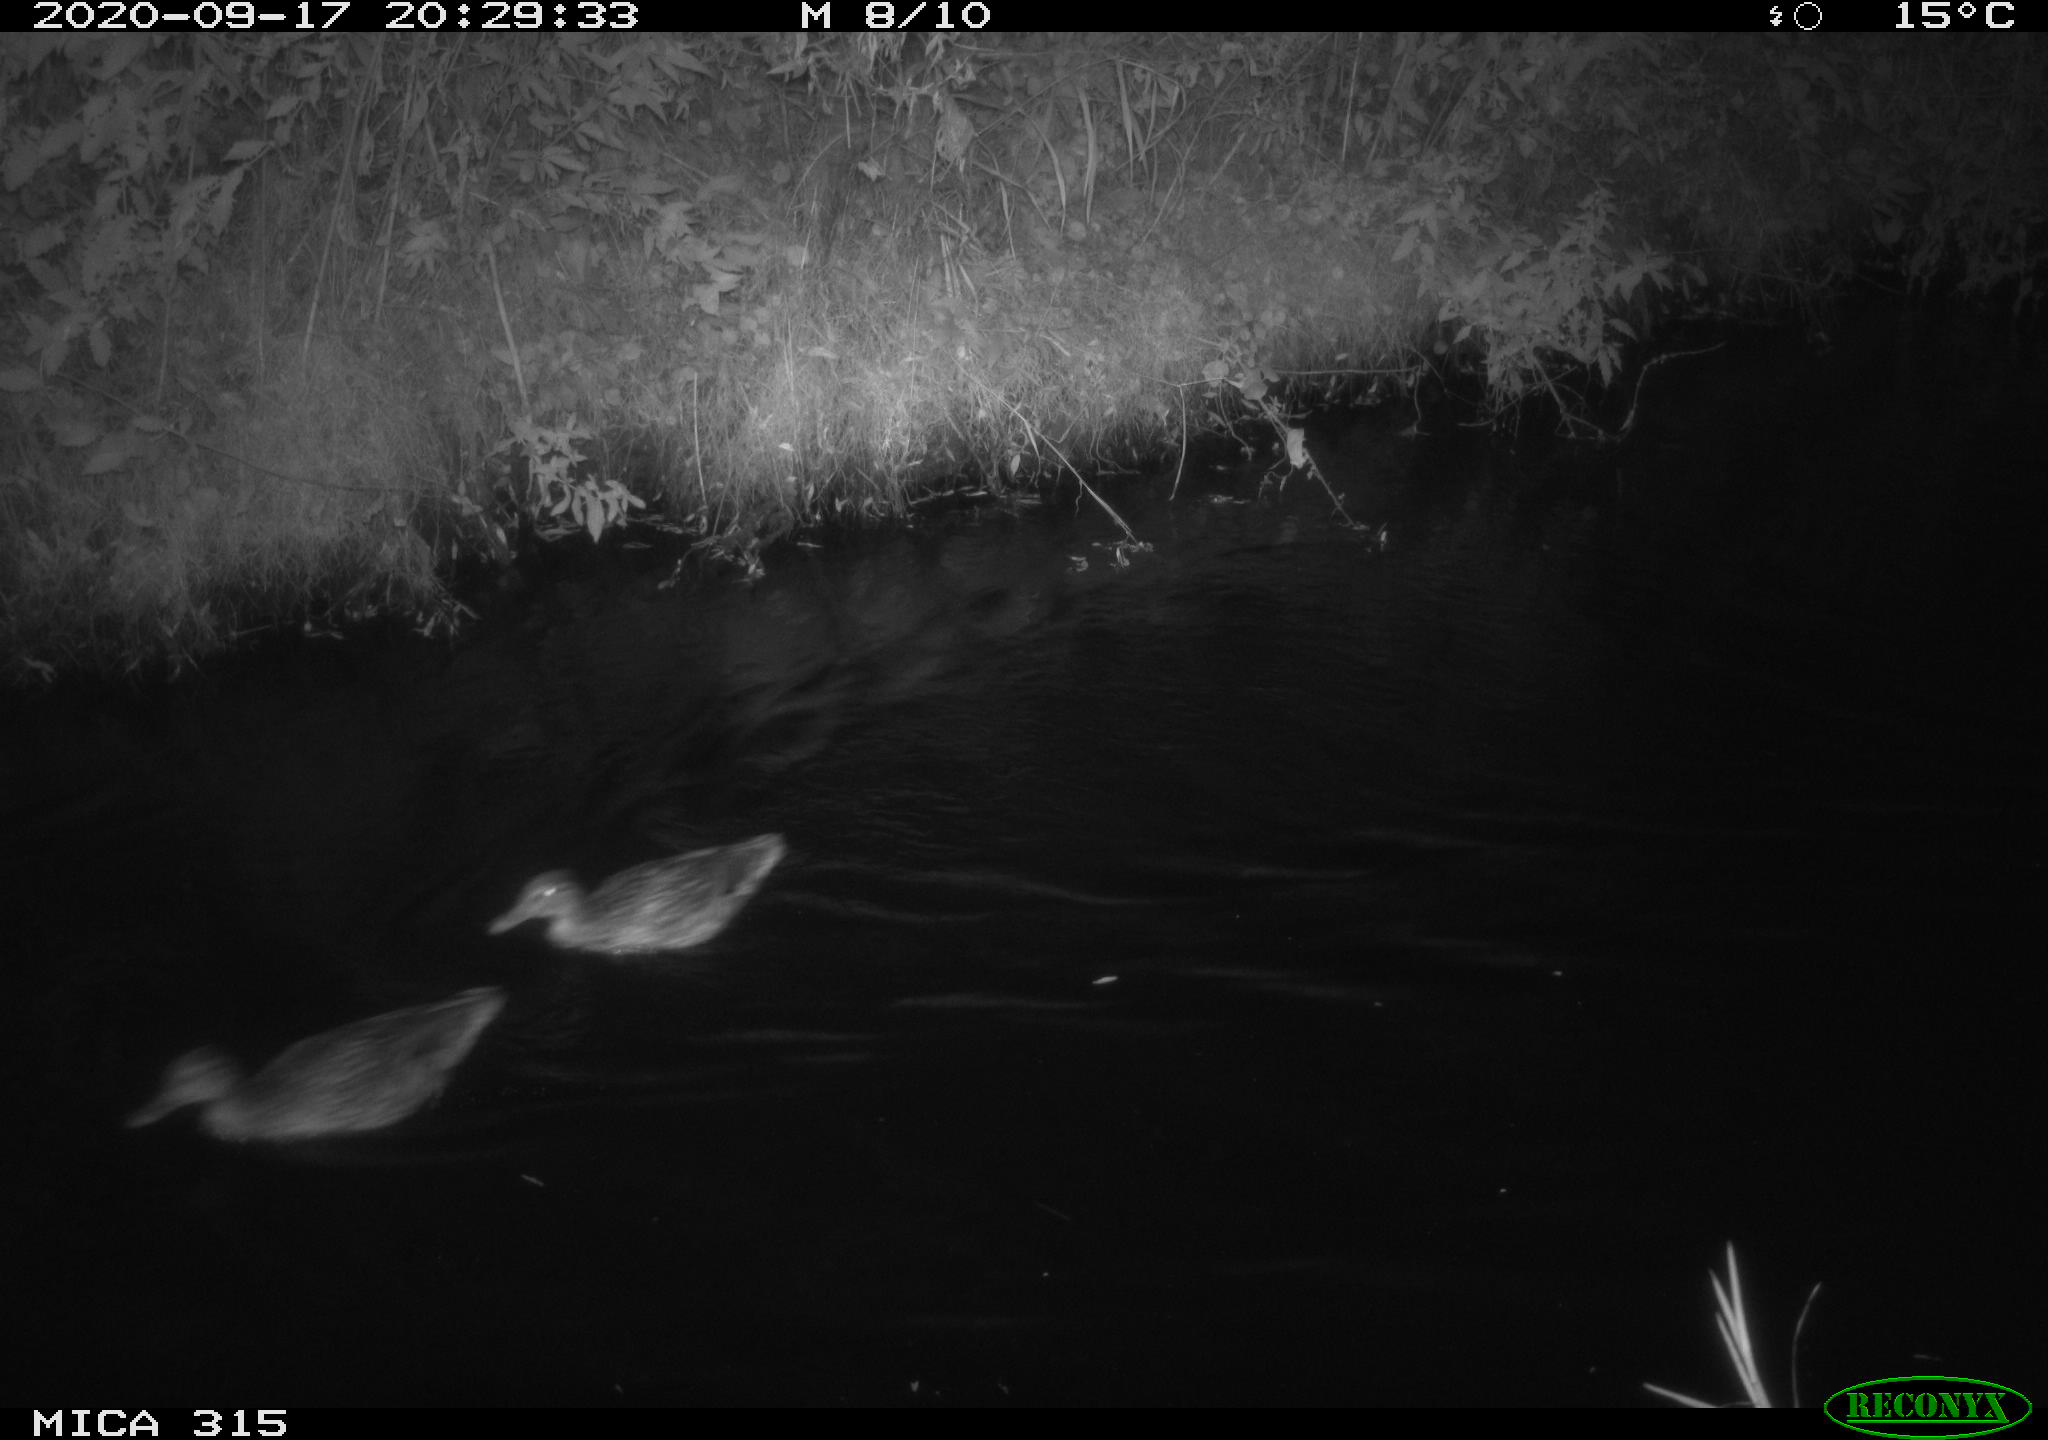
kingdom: Animalia
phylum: Chordata
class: Aves
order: Anseriformes
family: Anatidae
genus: Anas
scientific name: Anas platyrhynchos
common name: Mallard
